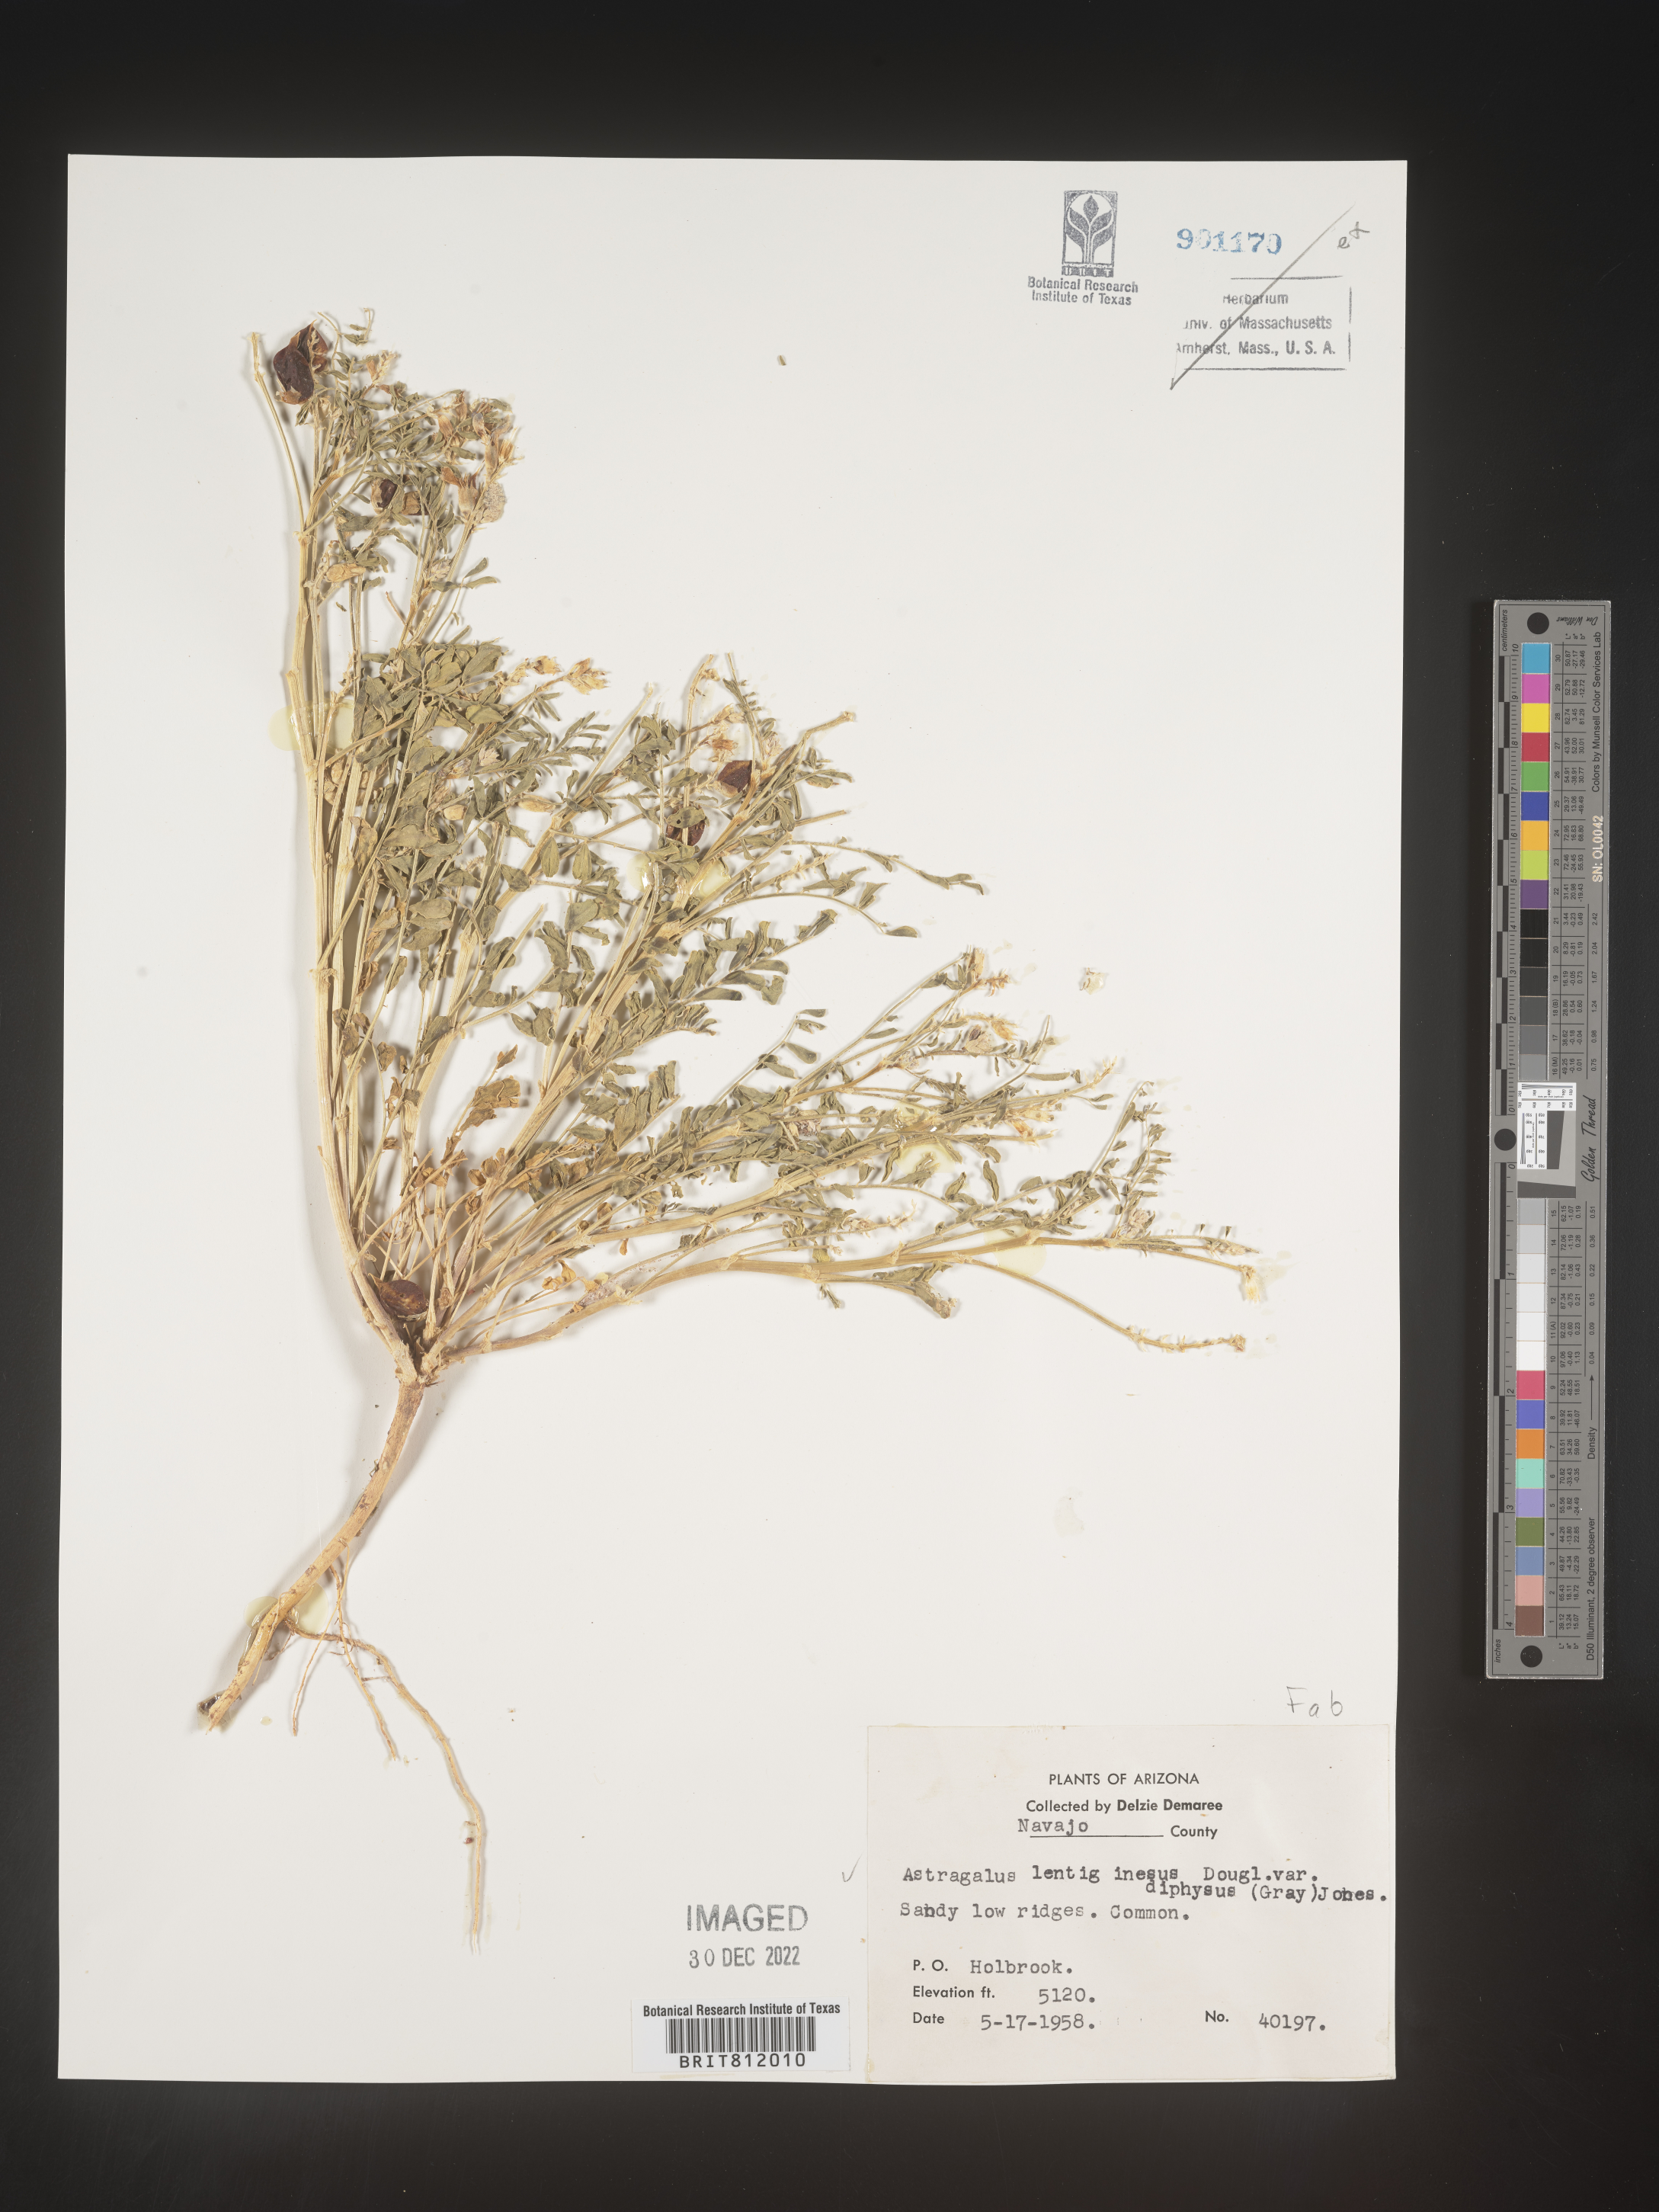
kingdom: Plantae
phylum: Tracheophyta
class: Magnoliopsida
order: Fabales
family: Fabaceae
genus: Astragalus
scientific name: Astragalus lentiginosus
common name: Freckled milkvetch
